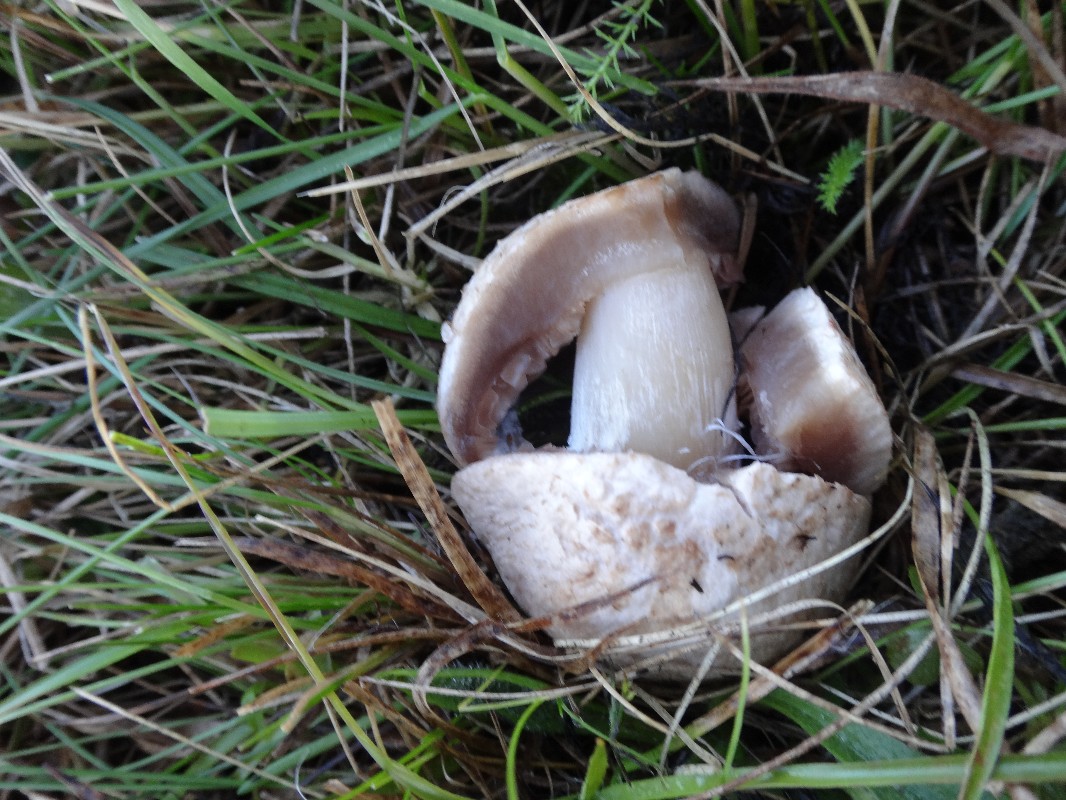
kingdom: Fungi
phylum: Basidiomycota
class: Agaricomycetes
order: Agaricales
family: Agaricaceae
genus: Agaricus
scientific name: Agaricus campestris
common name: mark-champignon
